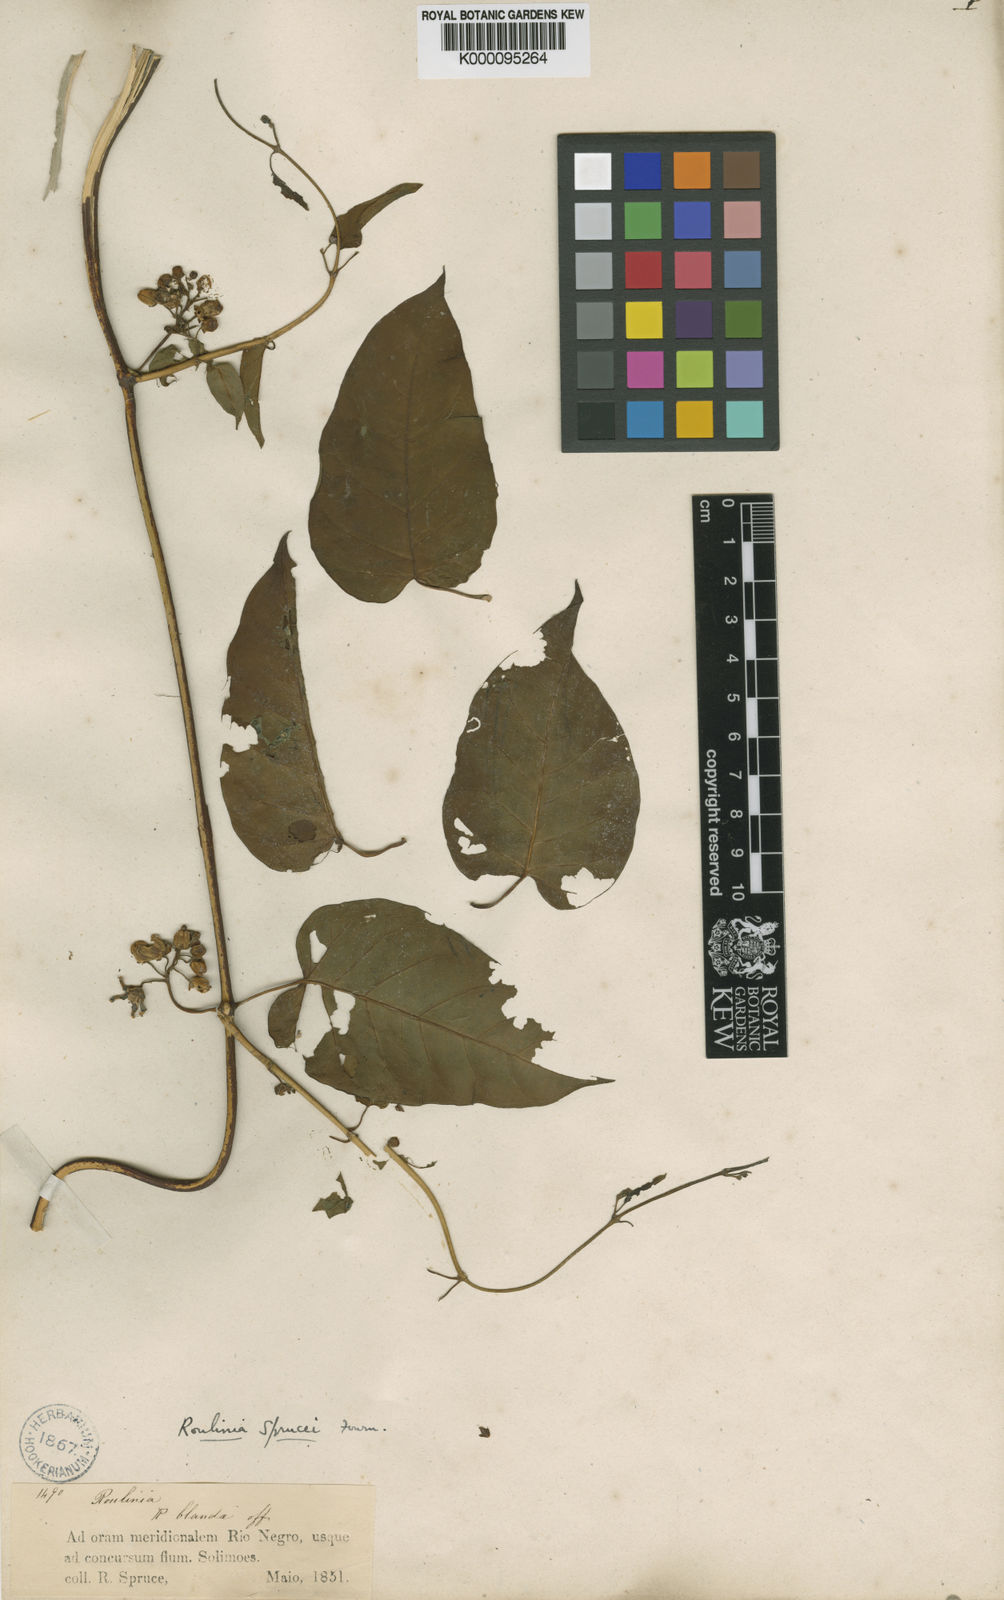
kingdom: Plantae
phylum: Tracheophyta
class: Magnoliopsida
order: Gentianales
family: Apocynaceae
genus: Cynanchum
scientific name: Cynanchum blandum
